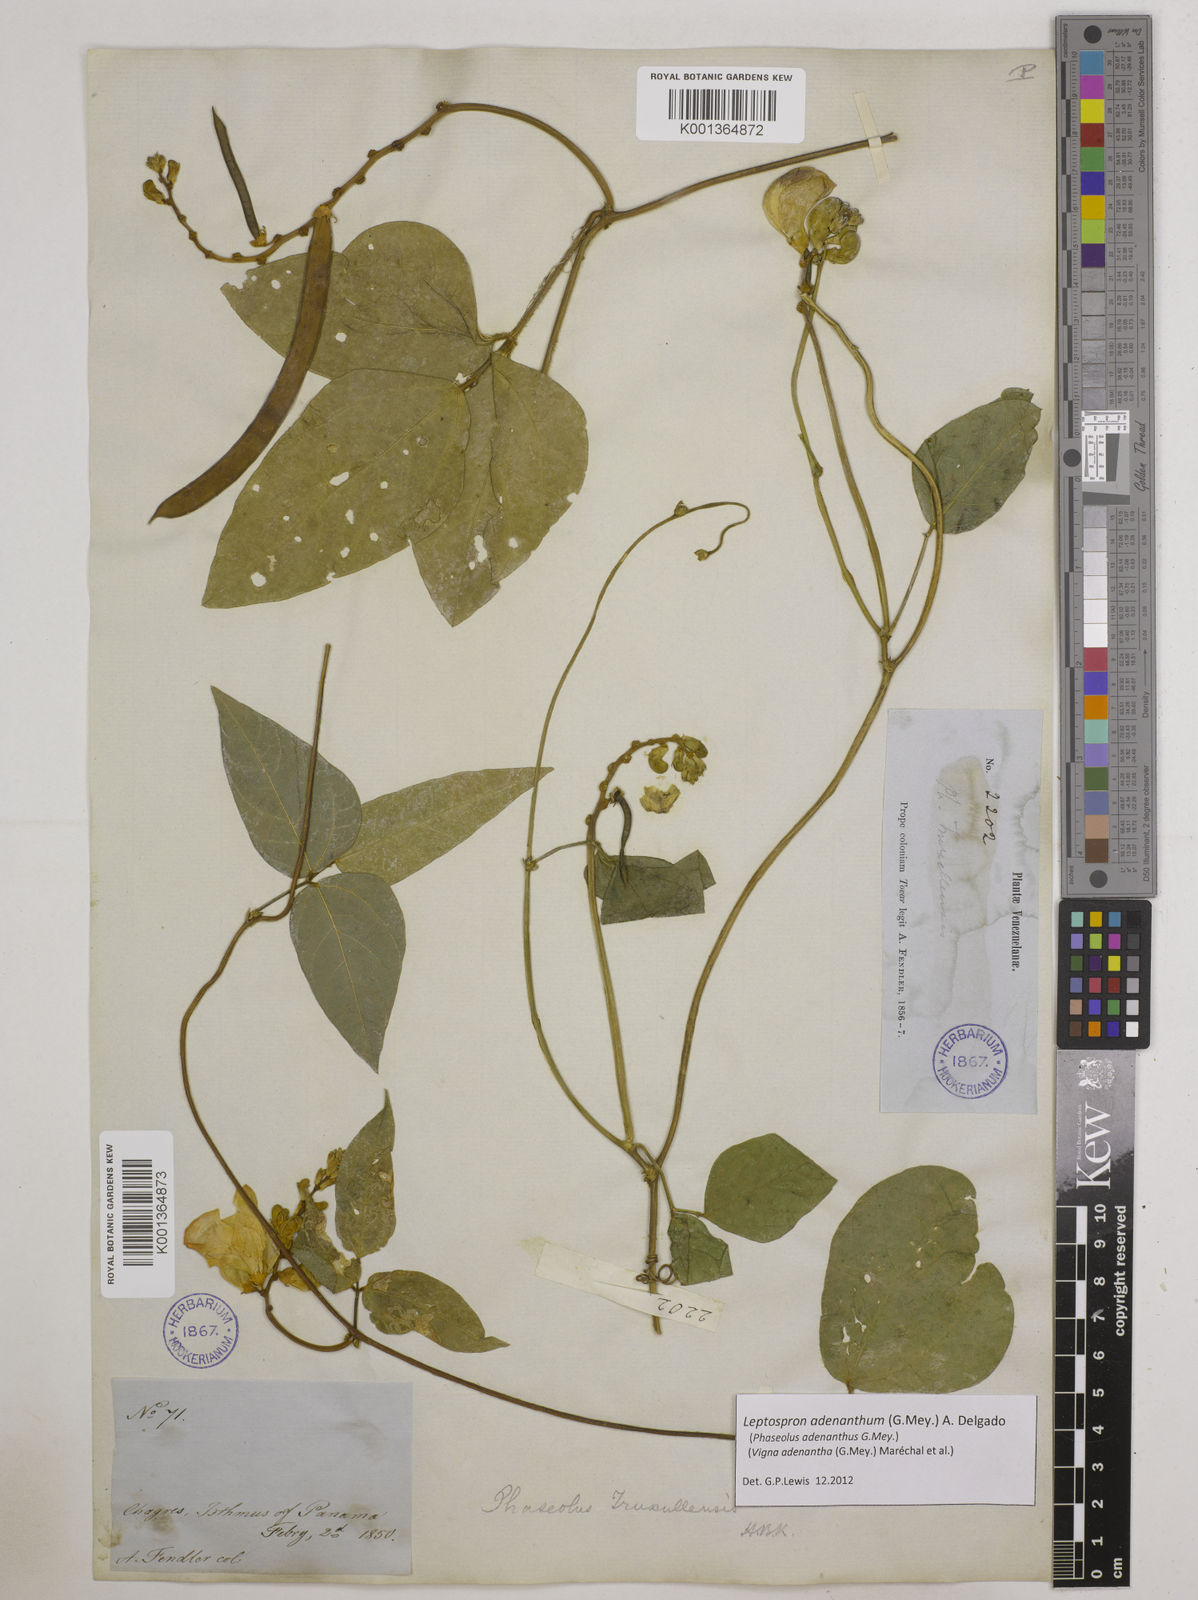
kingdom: Plantae
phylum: Tracheophyta
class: Magnoliopsida
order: Fabales
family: Fabaceae
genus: Leptospron
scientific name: Leptospron adenanthum
